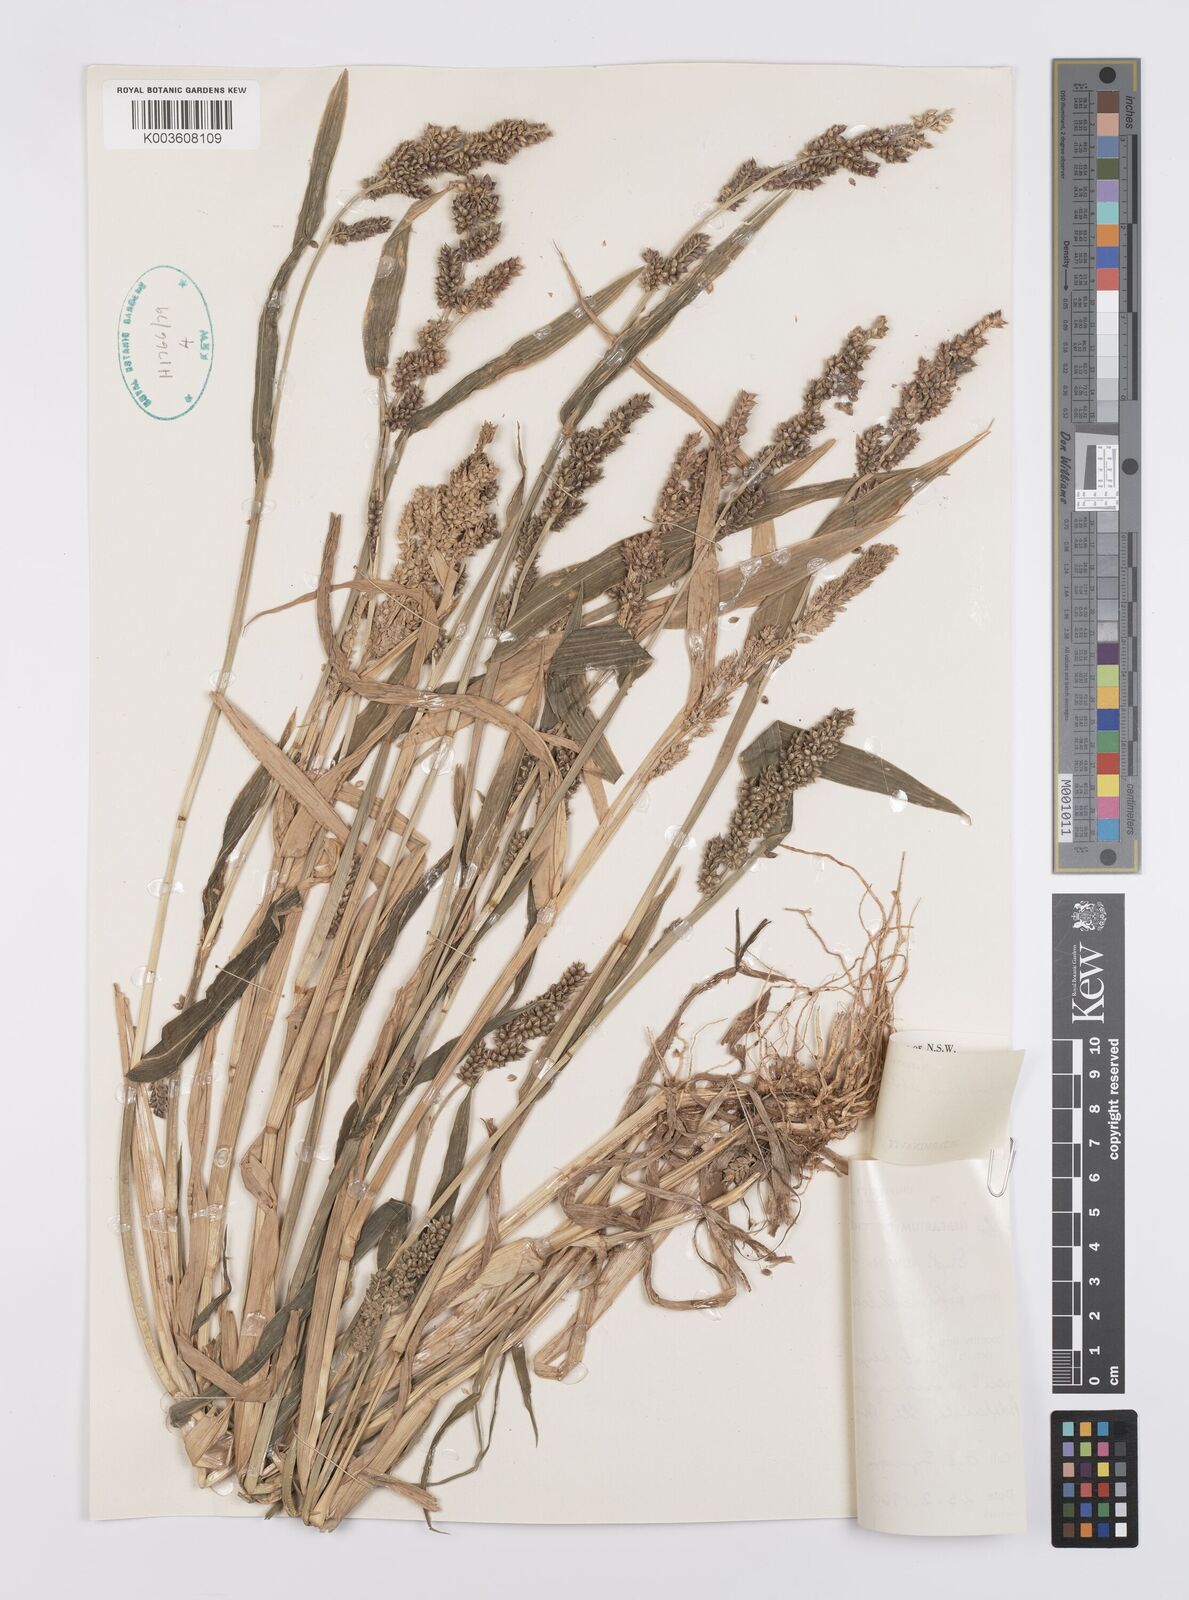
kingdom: Plantae
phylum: Tracheophyta
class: Liliopsida
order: Poales
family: Poaceae
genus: Echinochloa
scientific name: Echinochloa crus-galli
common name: Cockspur
